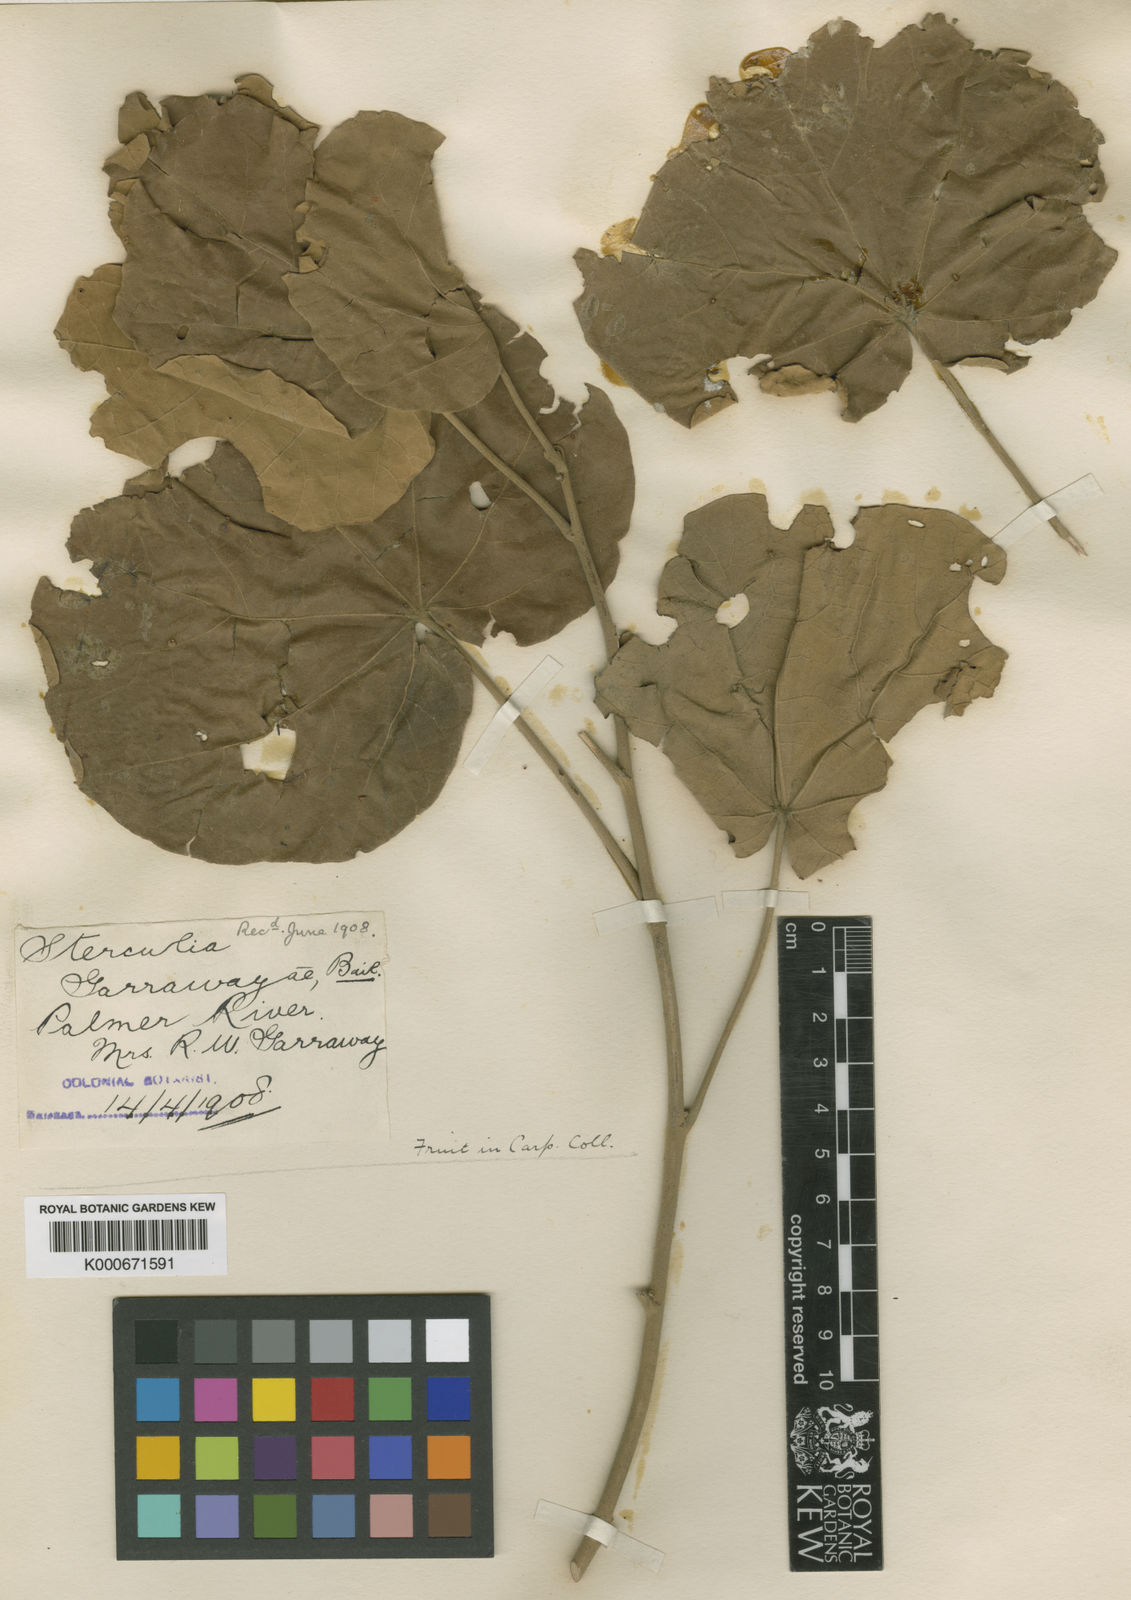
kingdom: Plantae
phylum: Tracheophyta
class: Magnoliopsida
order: Malvales
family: Malvaceae
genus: Brachychiton
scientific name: Brachychiton garrawayae
